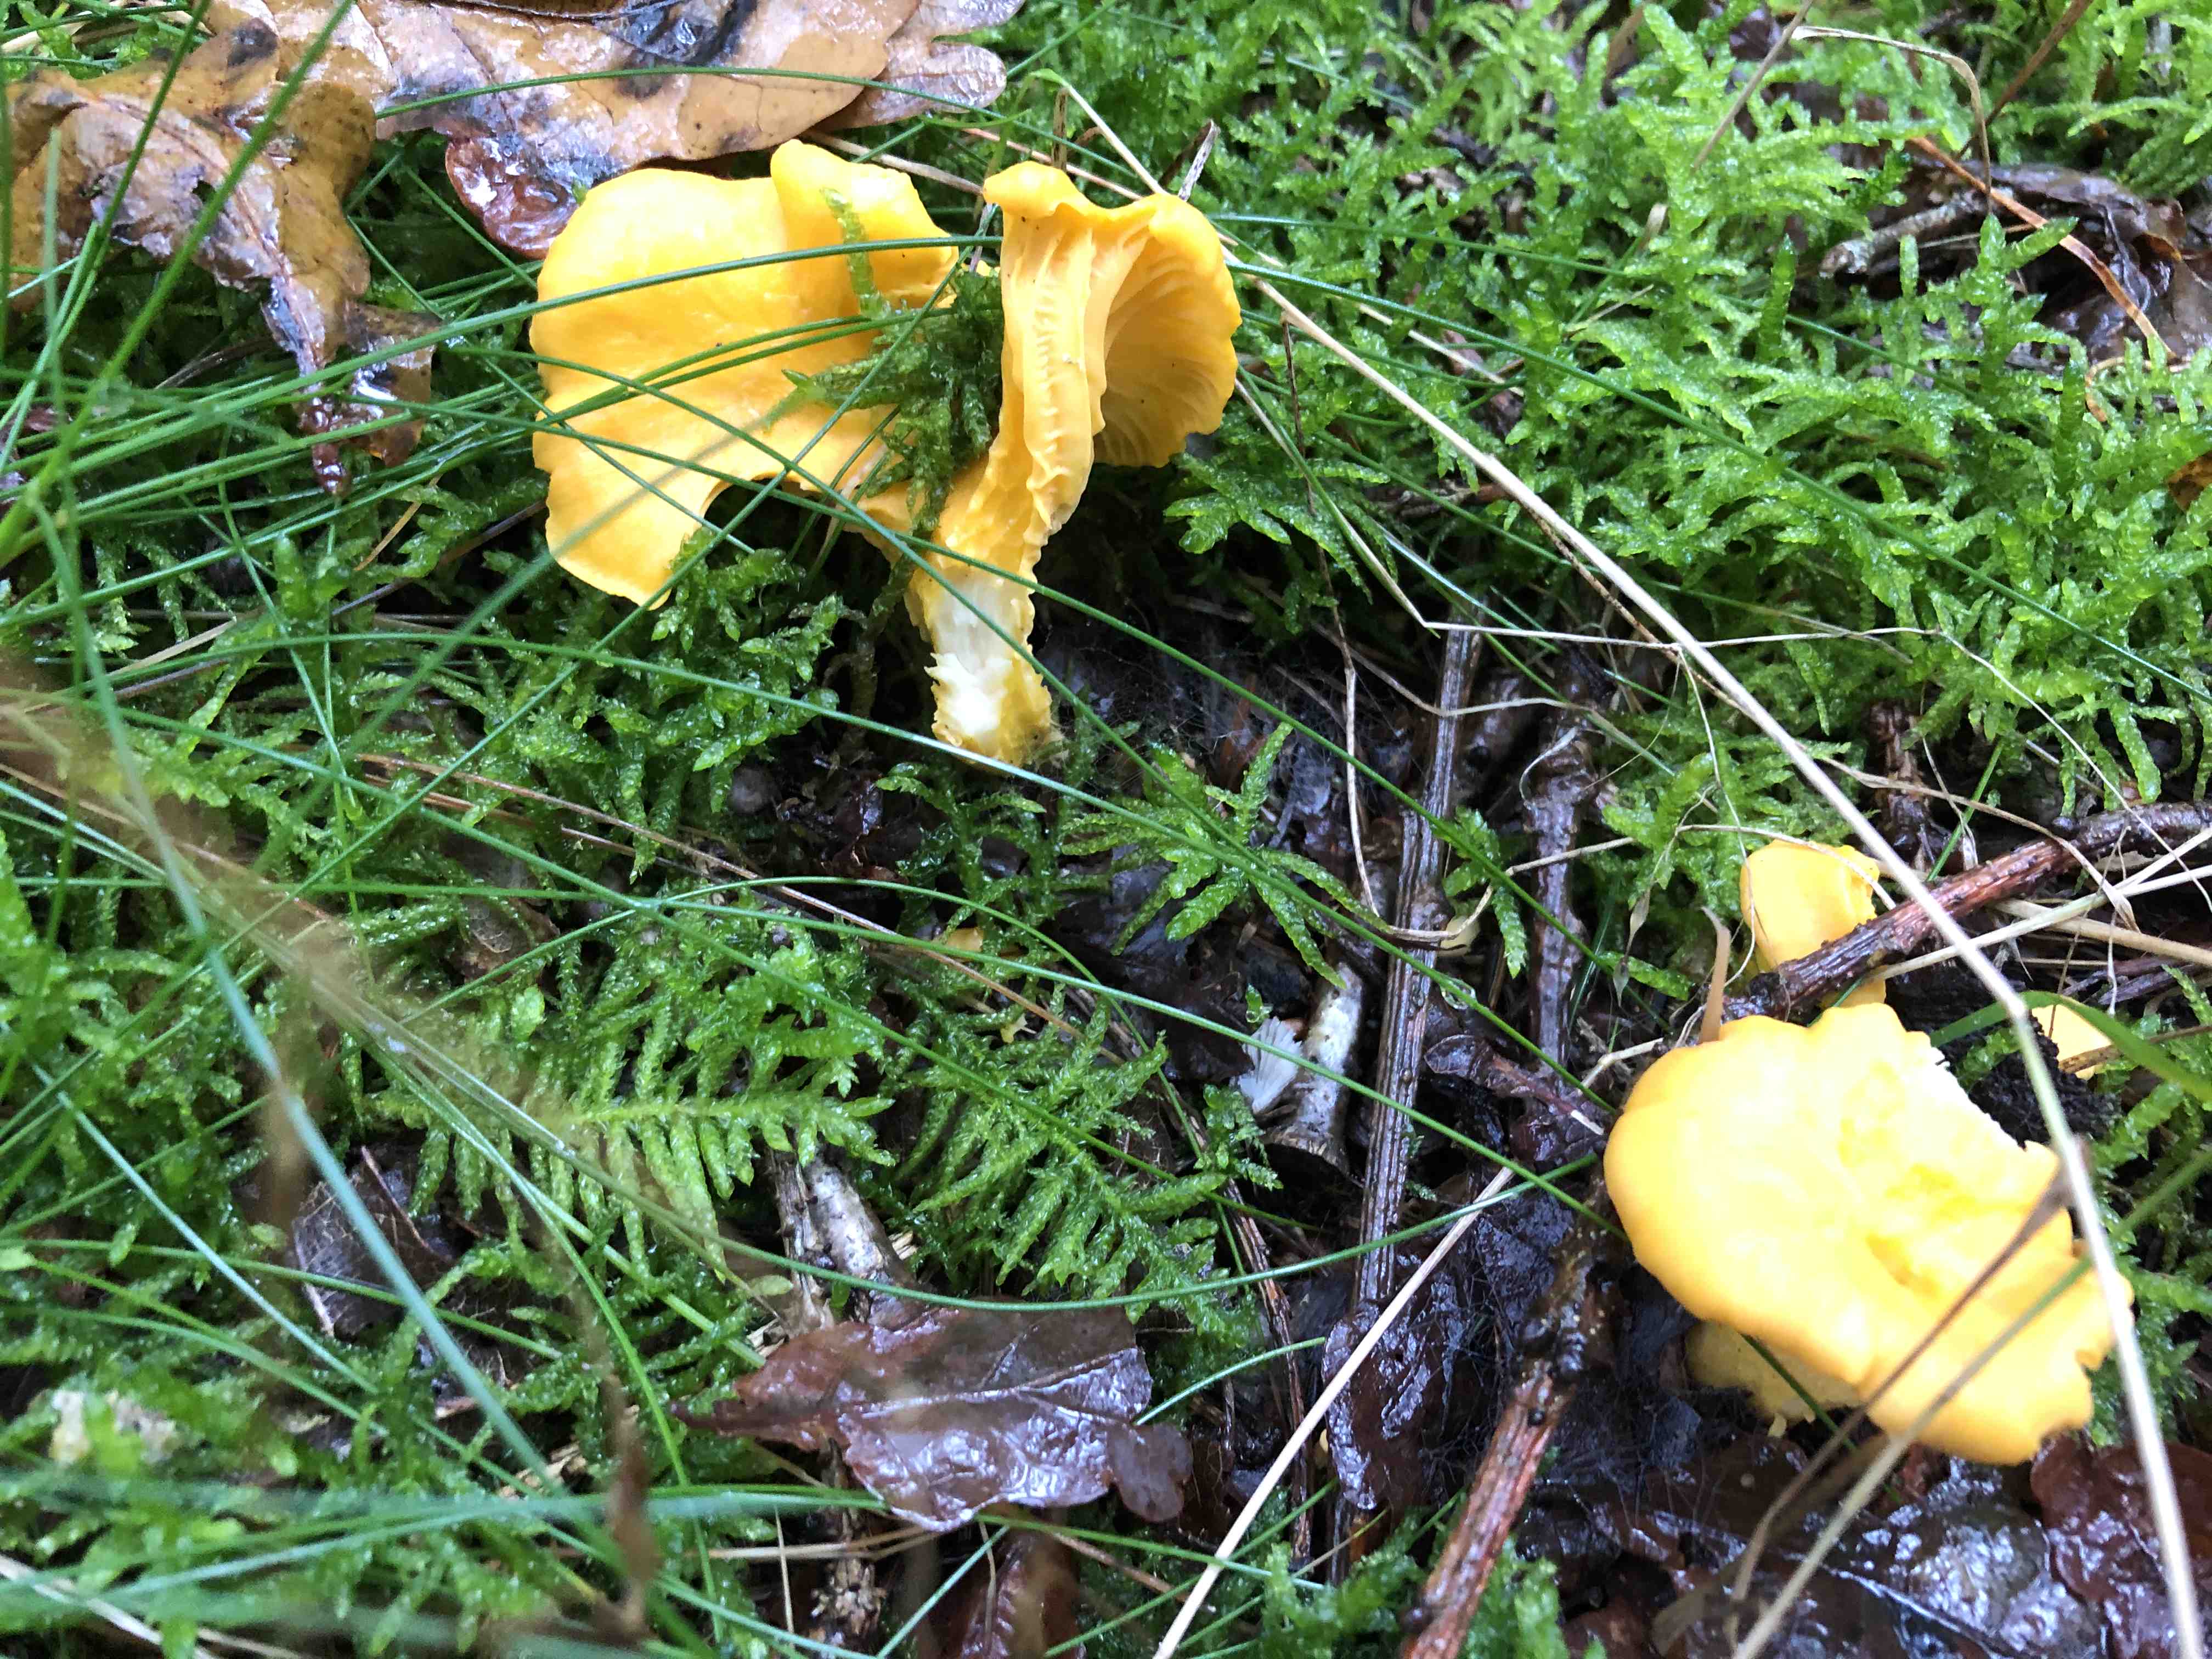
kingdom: Fungi
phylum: Basidiomycota
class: Agaricomycetes
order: Cantharellales
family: Hydnaceae
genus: Cantharellus
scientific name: Cantharellus cibarius
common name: almindelig kantarel
